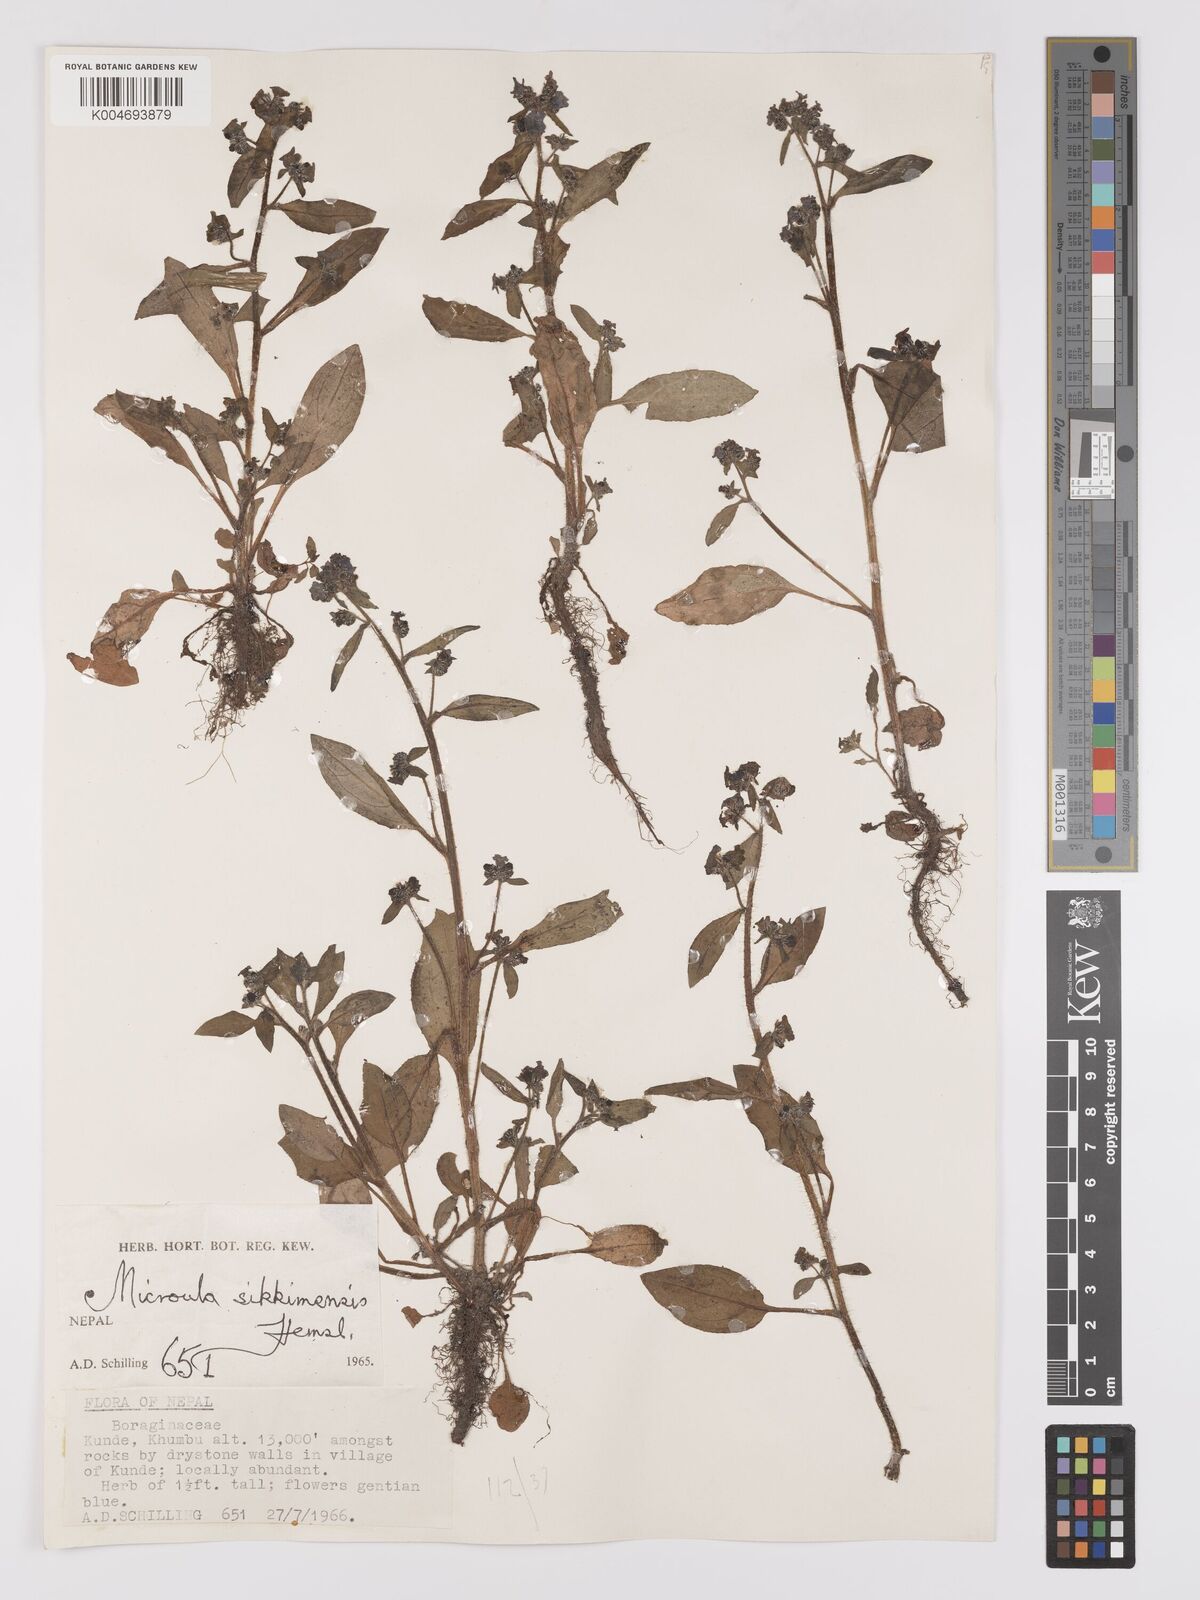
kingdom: Plantae
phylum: Tracheophyta
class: Magnoliopsida
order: Boraginales
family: Boraginaceae
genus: Microula
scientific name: Microula sikkimensis
